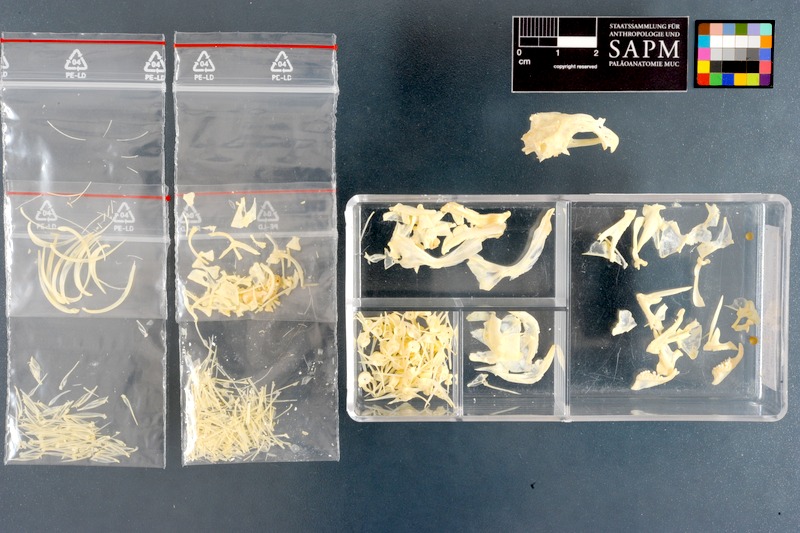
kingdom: Animalia
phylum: Chordata
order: Perciformes
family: Clinidae
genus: Clinus
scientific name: Clinus superciliosus
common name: Super klipfish
